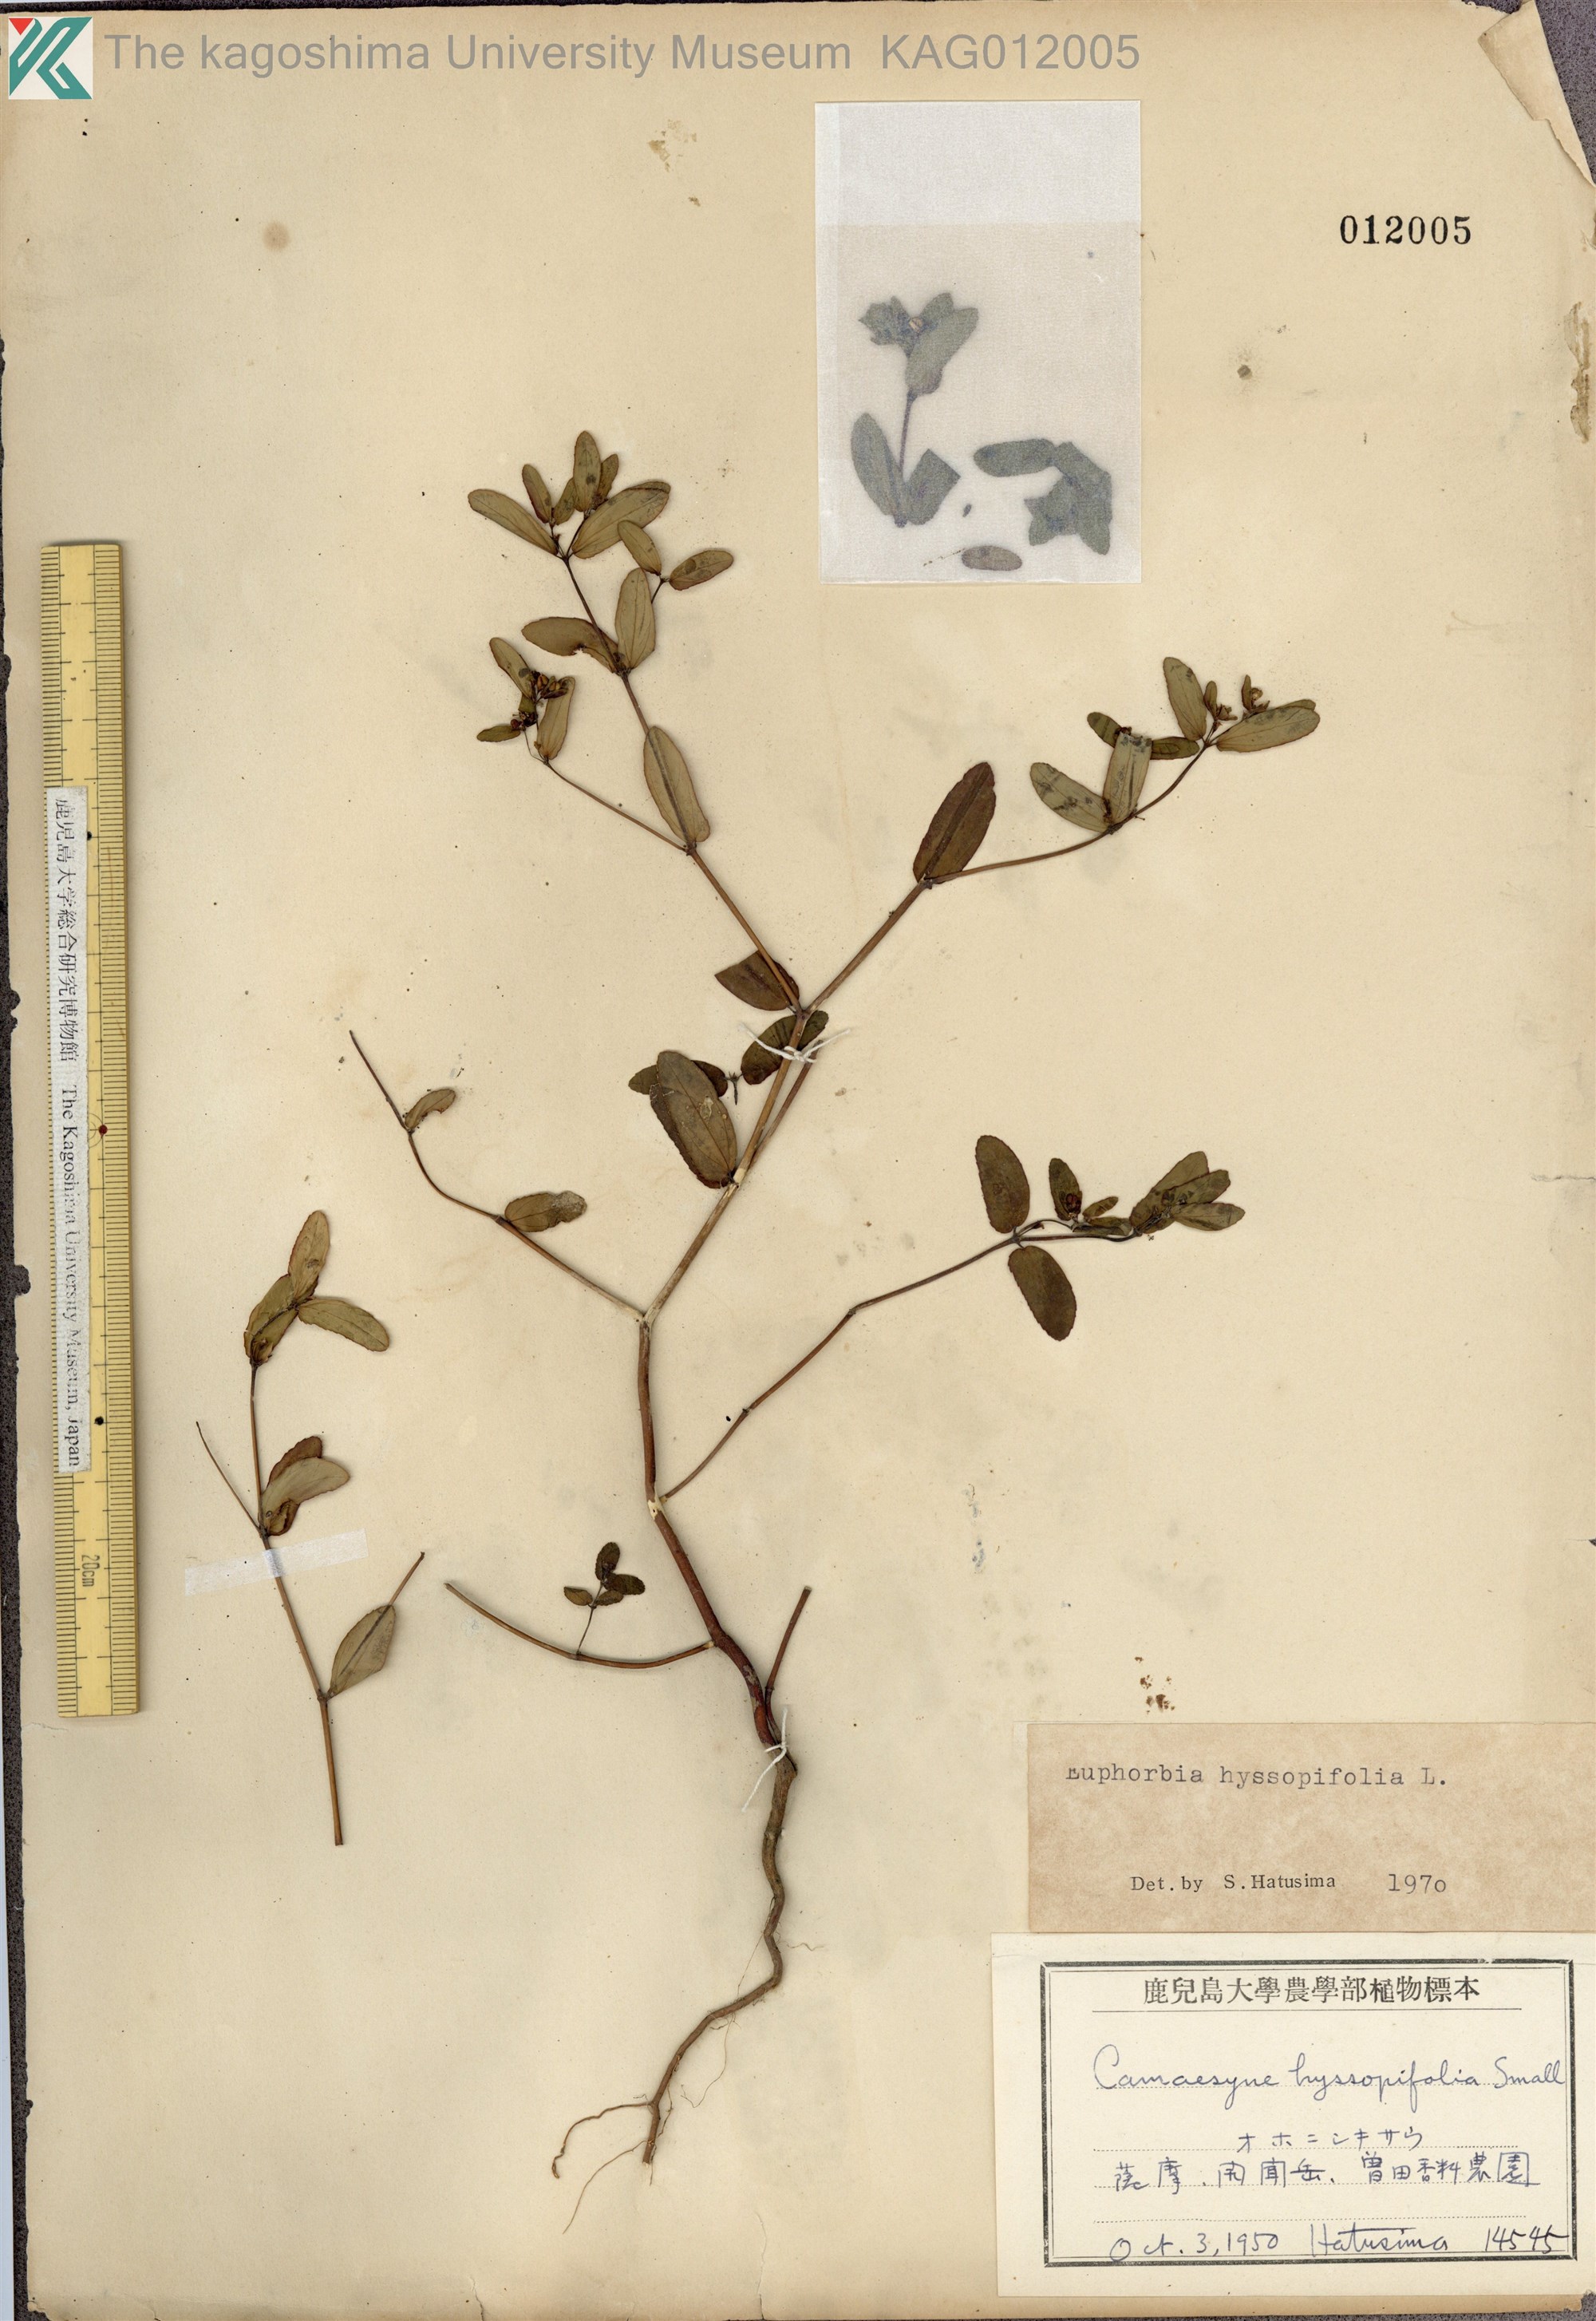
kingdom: Plantae
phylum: Tracheophyta
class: Magnoliopsida
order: Malpighiales
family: Euphorbiaceae
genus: Euphorbia
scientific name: Euphorbia hyssopifolia
